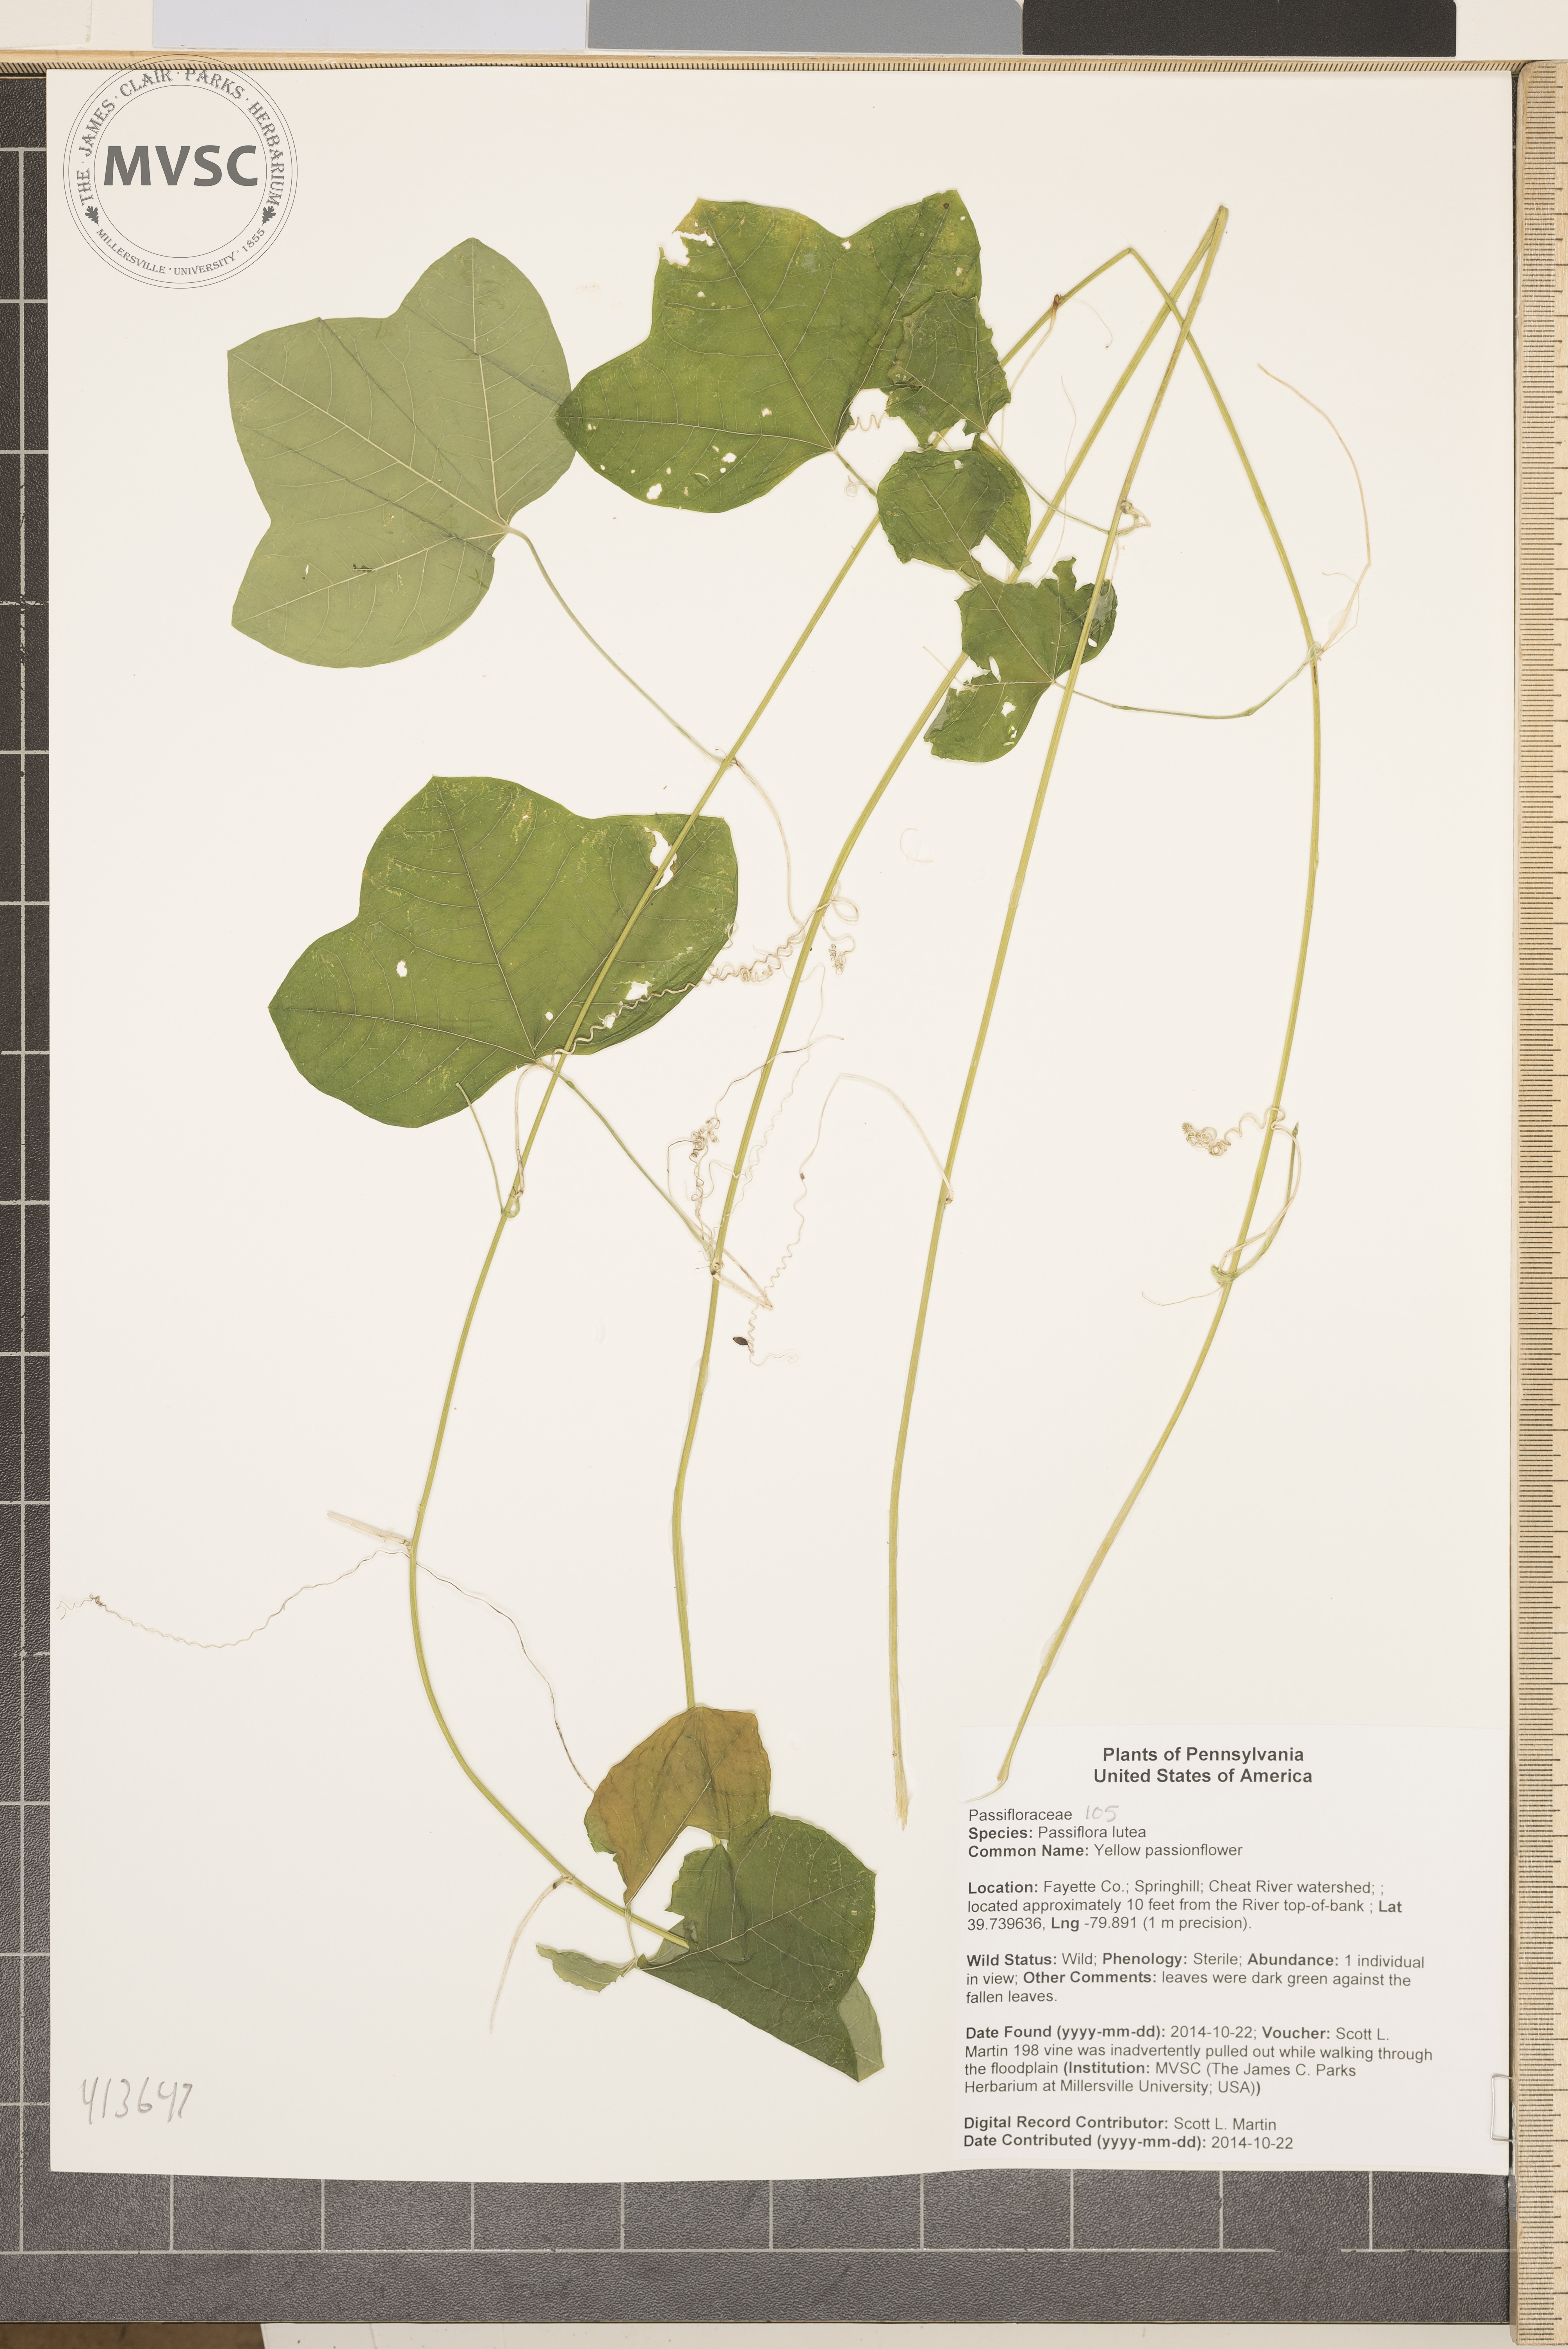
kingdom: Plantae
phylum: Tracheophyta
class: Magnoliopsida
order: Malpighiales
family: Passifloraceae
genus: Passiflora
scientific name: Passiflora lutea
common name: Yellow passionflower
